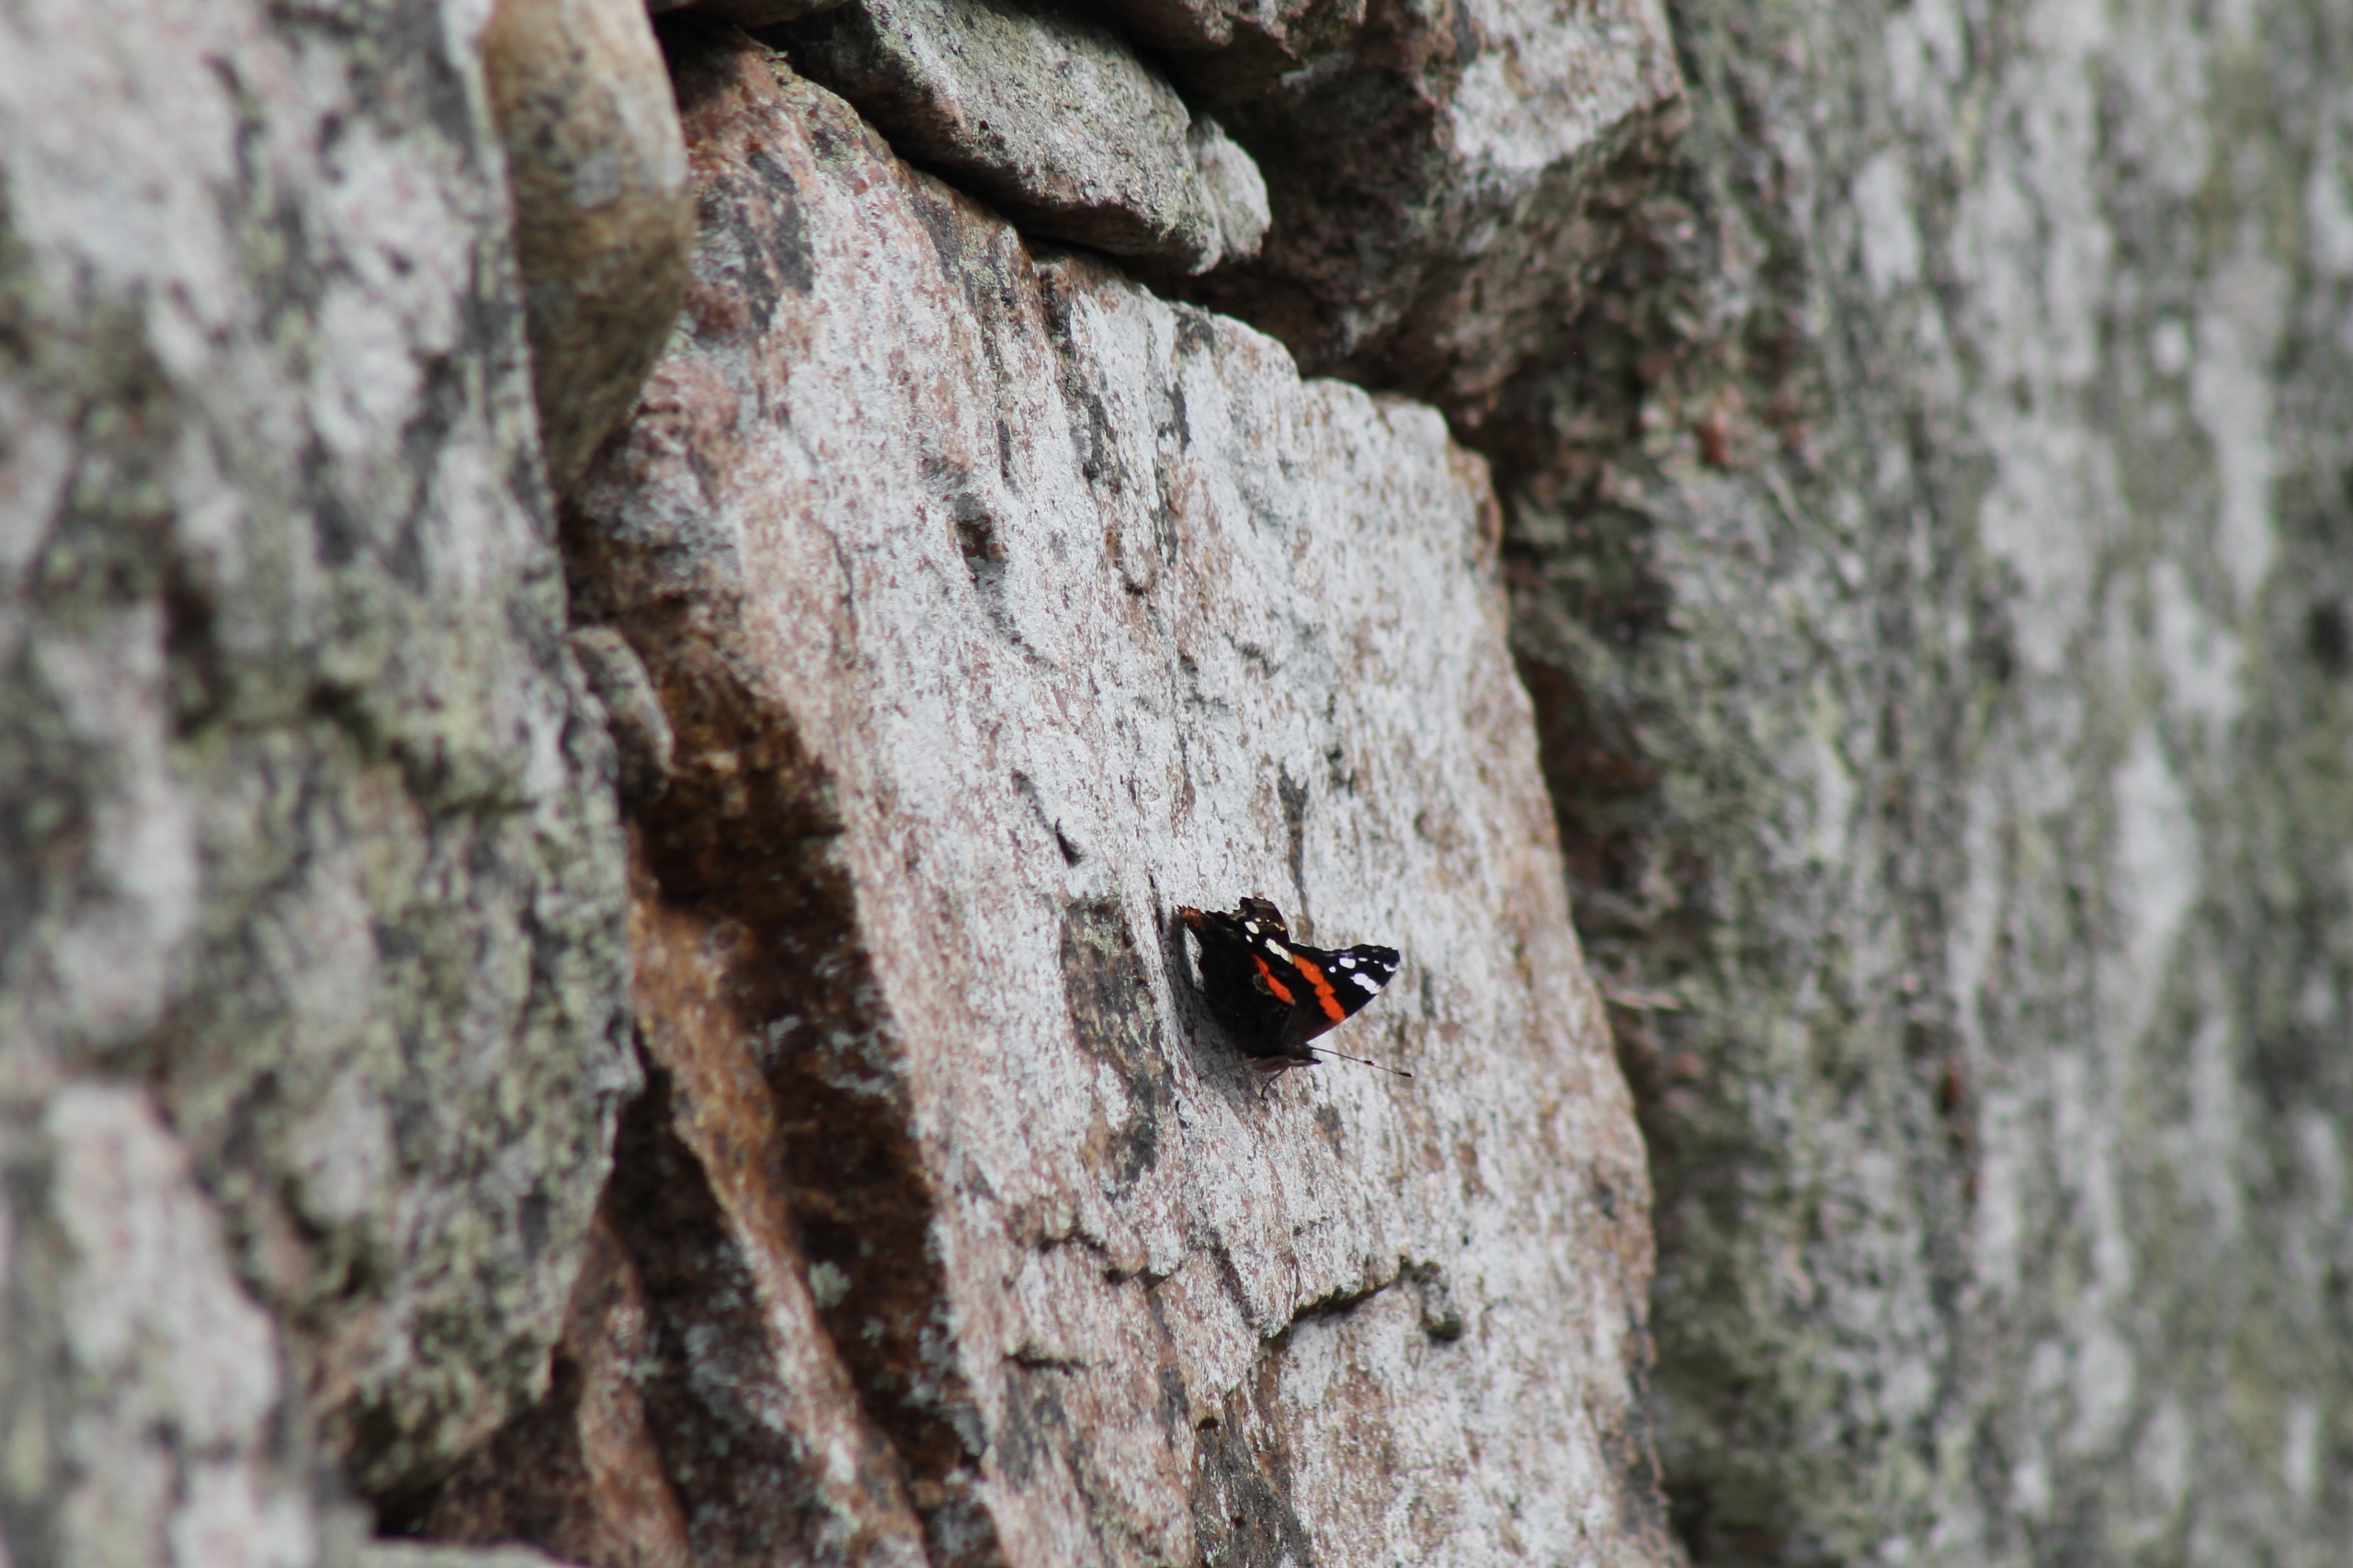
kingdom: Animalia
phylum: Arthropoda
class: Insecta
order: Lepidoptera
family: Nymphalidae
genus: Vanessa
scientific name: Vanessa atalanta
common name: Admiral
